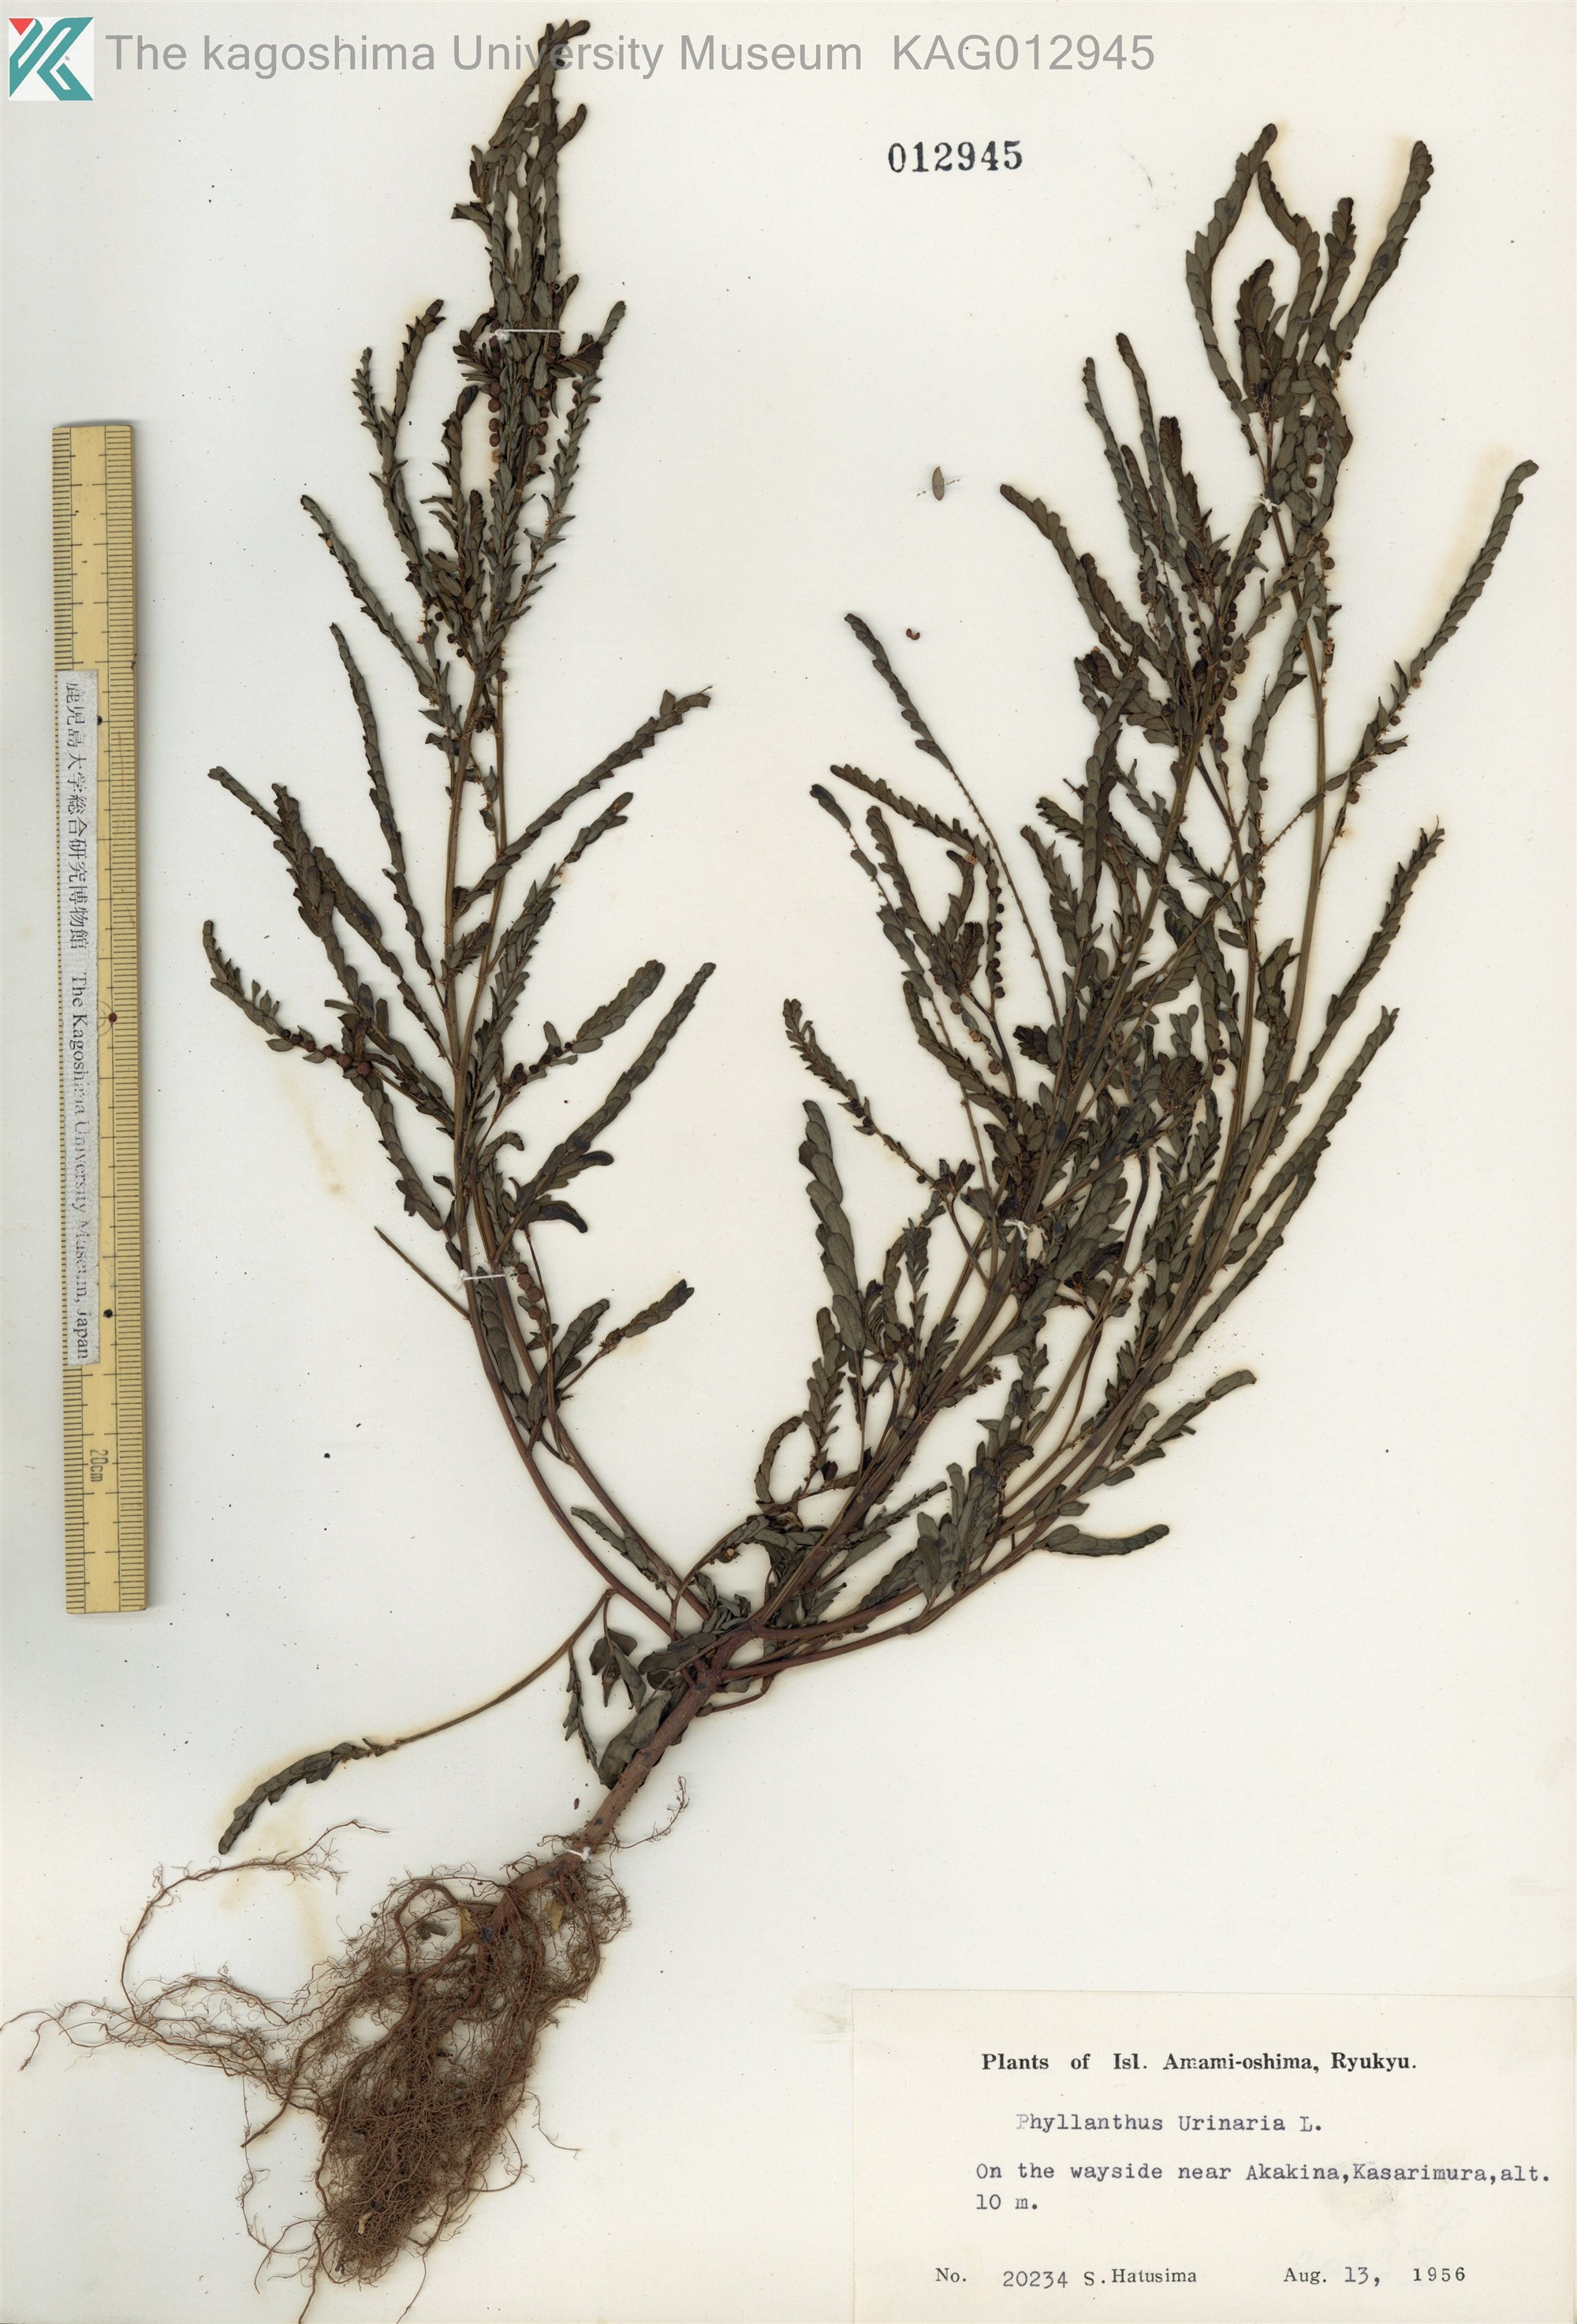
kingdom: Plantae
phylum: Tracheophyta
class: Magnoliopsida
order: Malpighiales
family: Phyllanthaceae
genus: Phyllanthus
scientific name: Phyllanthus urinaria
